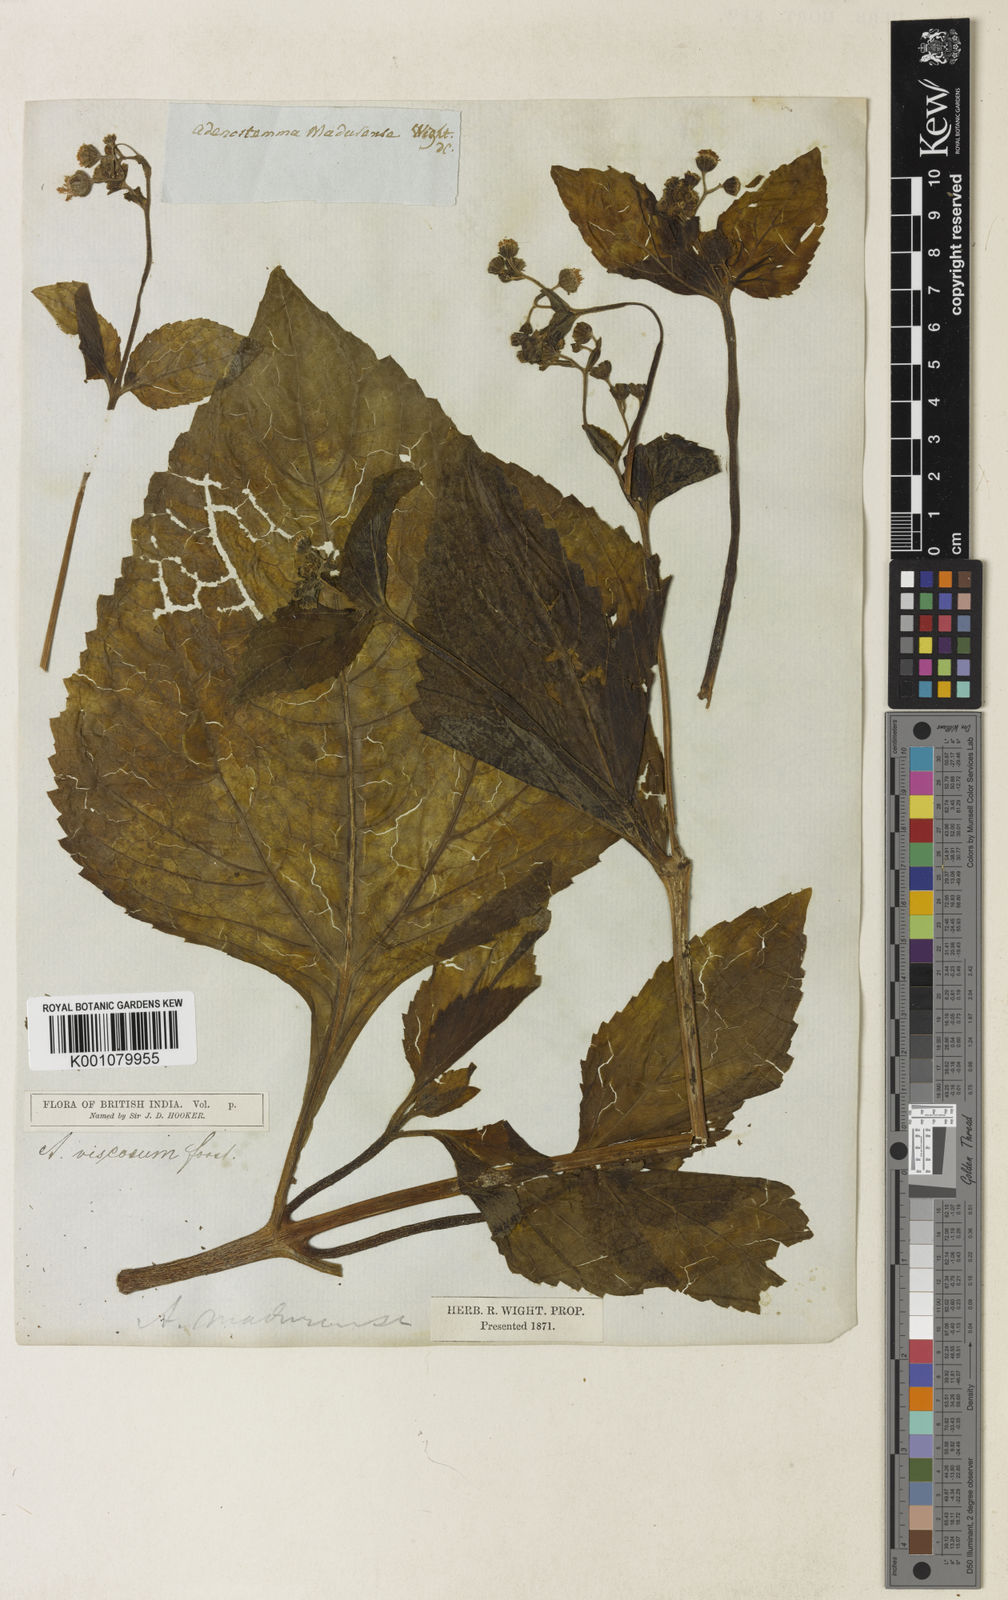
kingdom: Plantae
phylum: Tracheophyta
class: Magnoliopsida
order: Asterales
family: Asteraceae
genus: Adenostemma
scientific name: Adenostemma viscosum
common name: Dungweed
